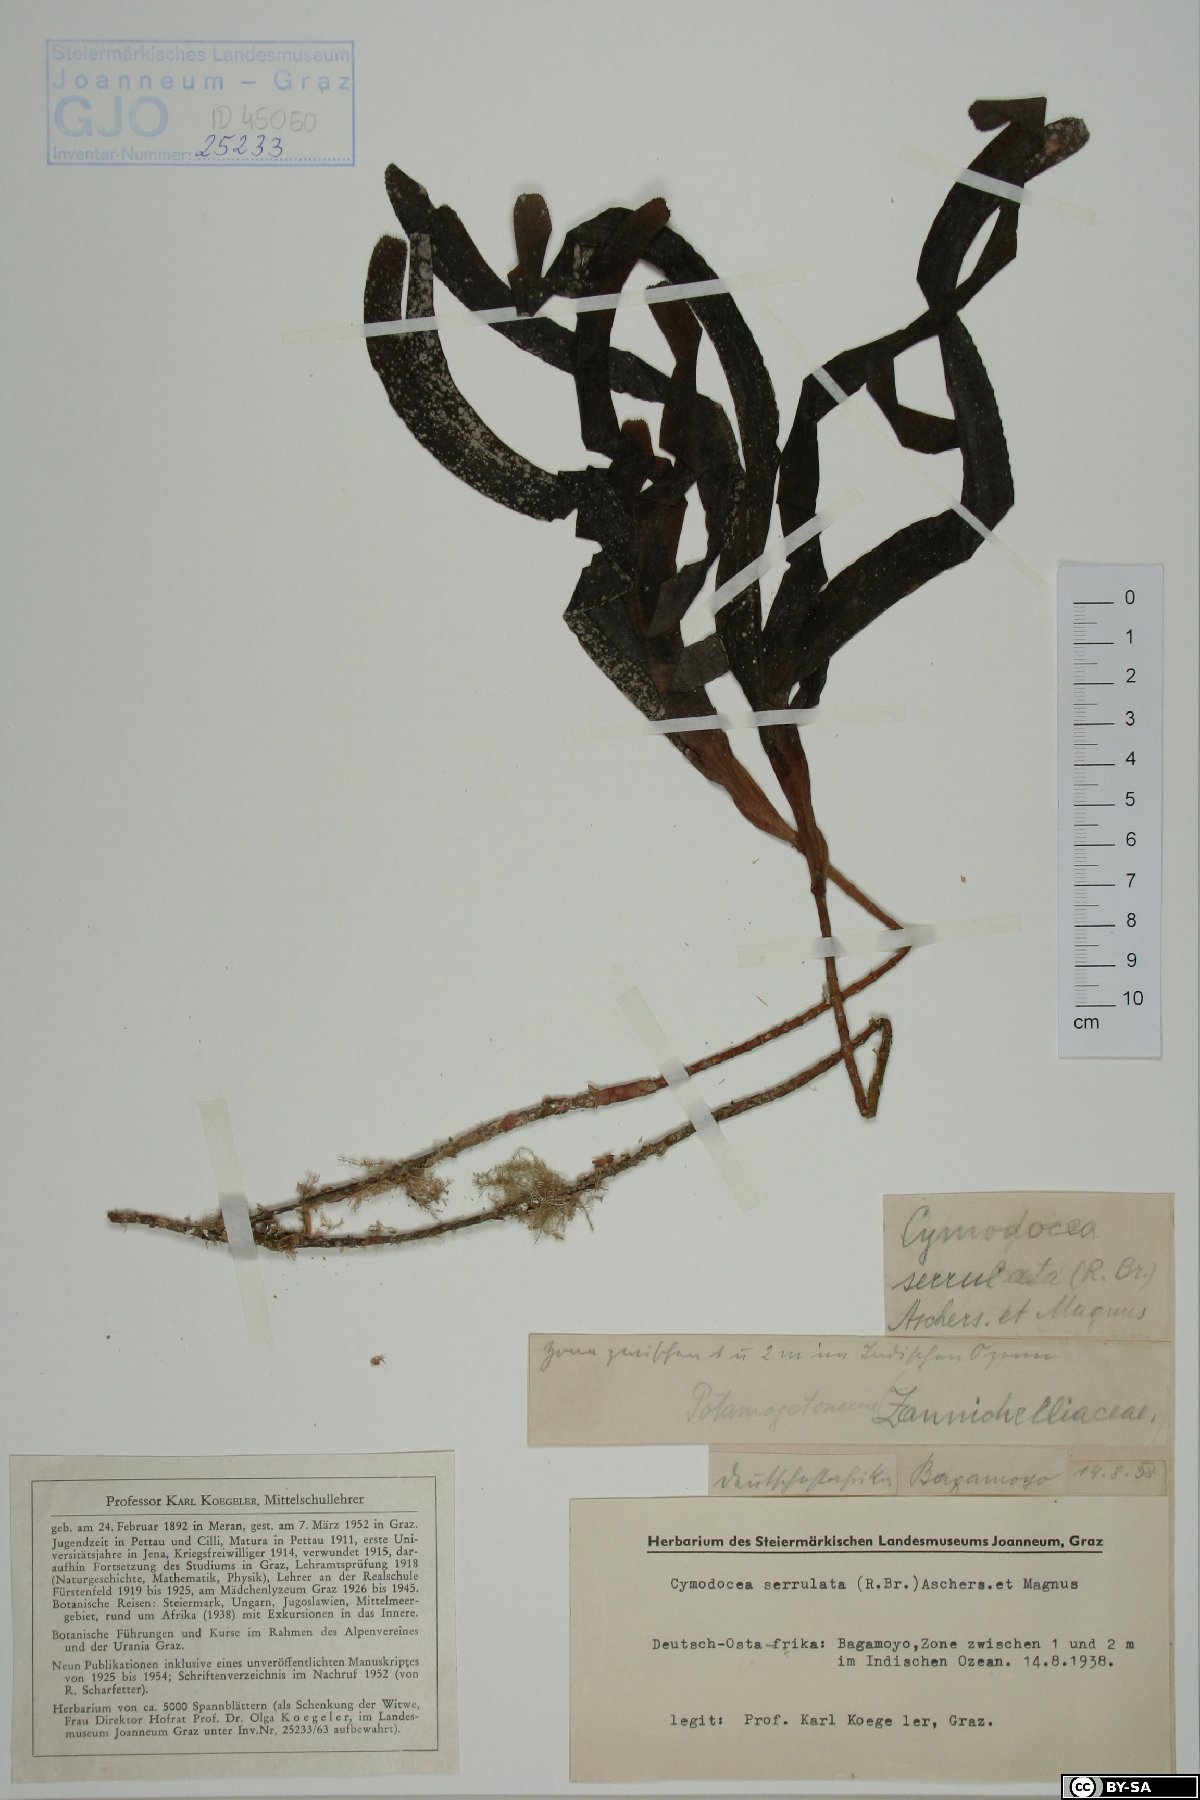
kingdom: Plantae
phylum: Tracheophyta
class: Liliopsida
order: Alismatales
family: Cymodoceaceae
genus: Oceana
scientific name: Oceana serrulata
